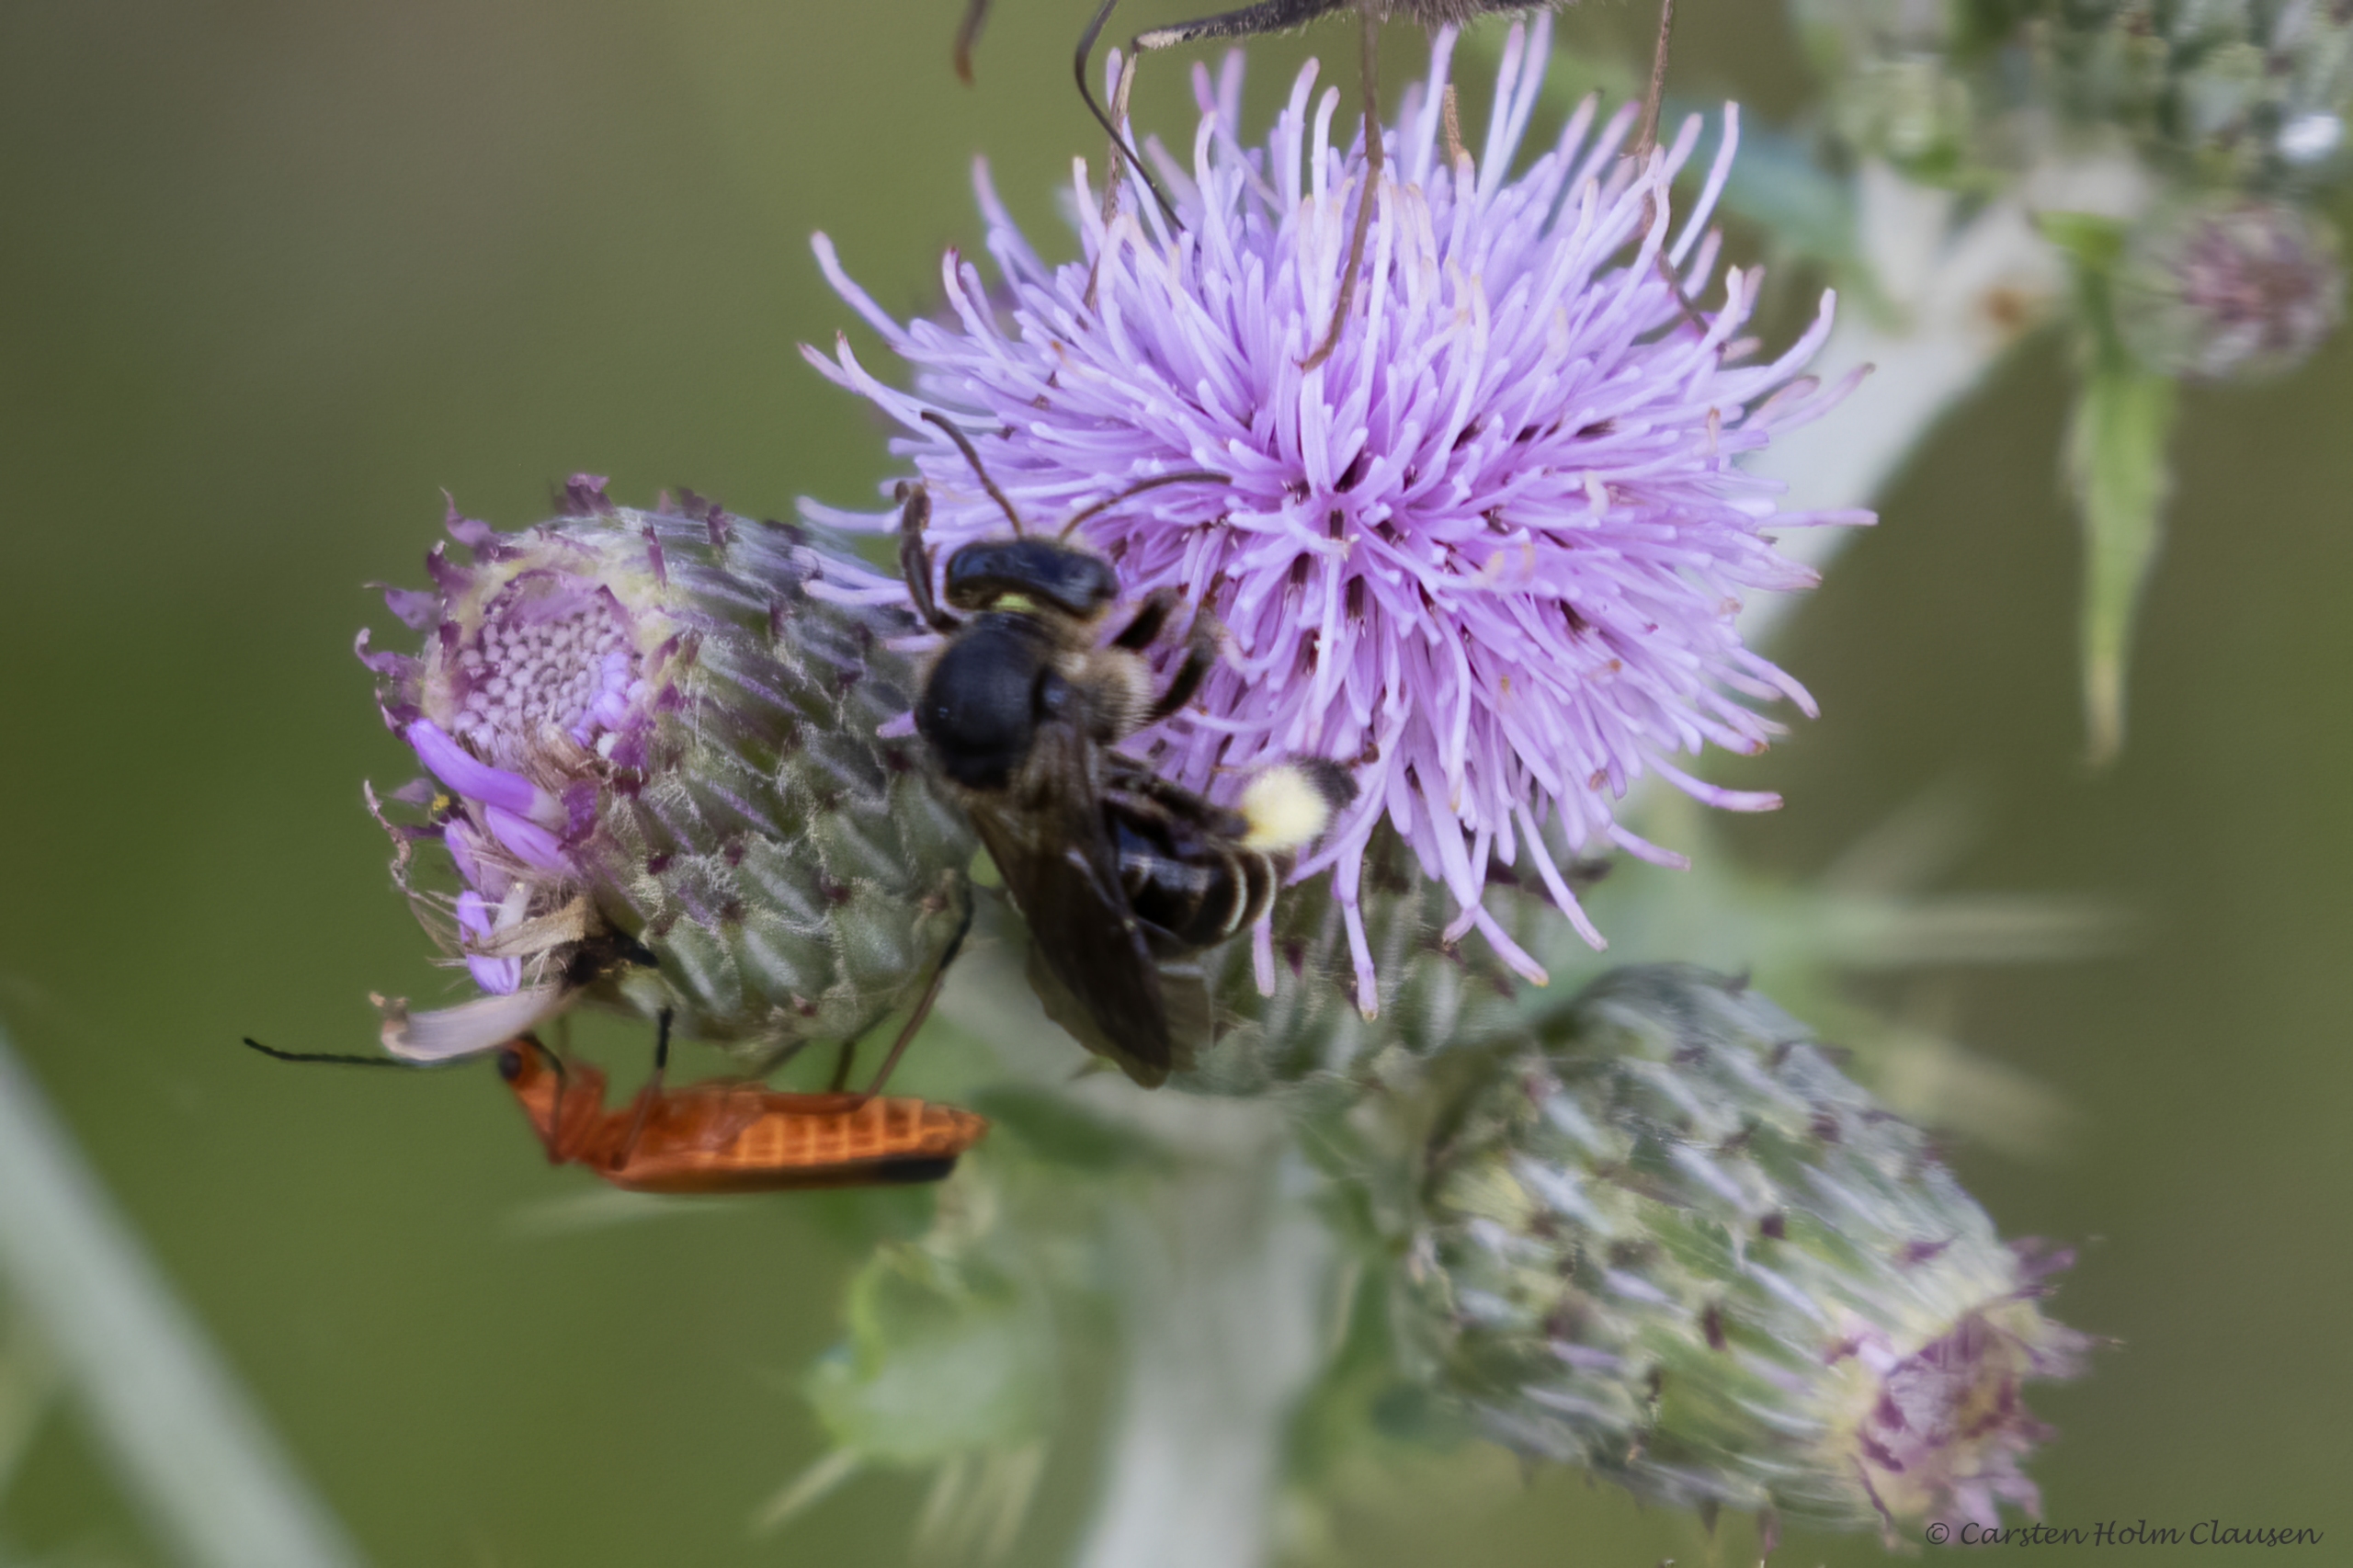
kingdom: Animalia
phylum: Arthropoda
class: Insecta
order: Hymenoptera
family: Melittidae
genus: Macropis
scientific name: Macropis europaea
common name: Hvidbenet oliebi
